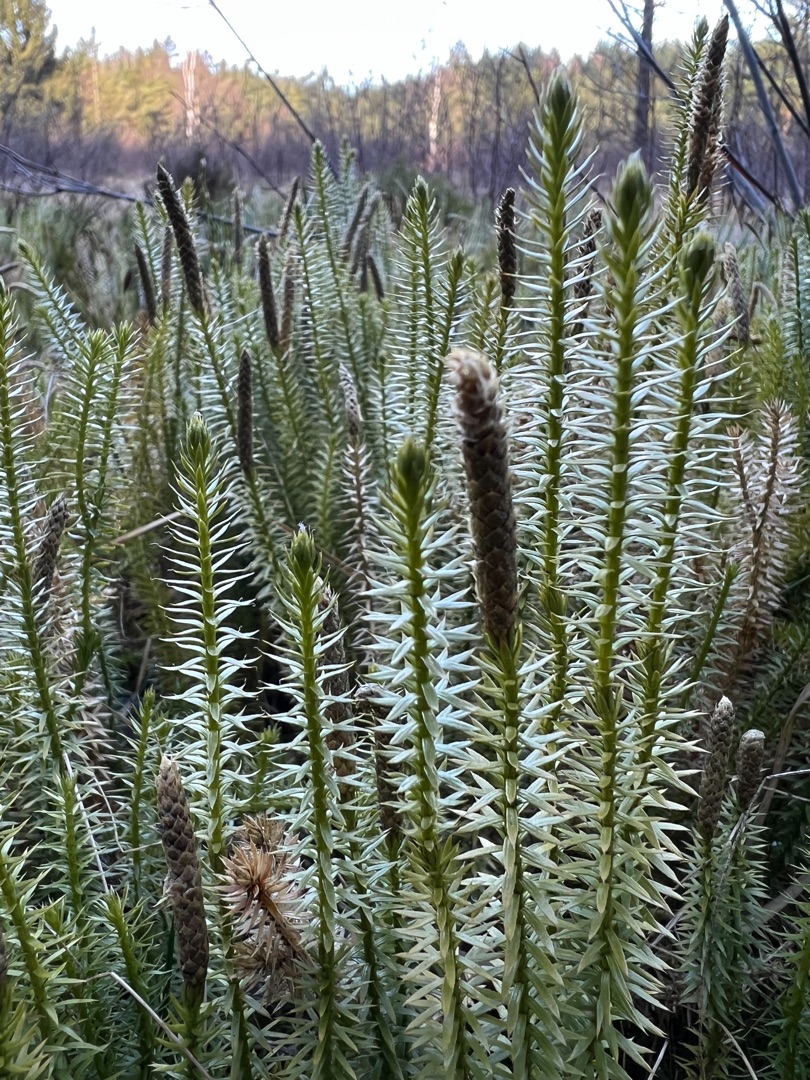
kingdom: Plantae
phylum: Tracheophyta
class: Lycopodiopsida
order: Lycopodiales
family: Lycopodiaceae
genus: Spinulum
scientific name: Spinulum annotinum
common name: Femradet ulvefod
